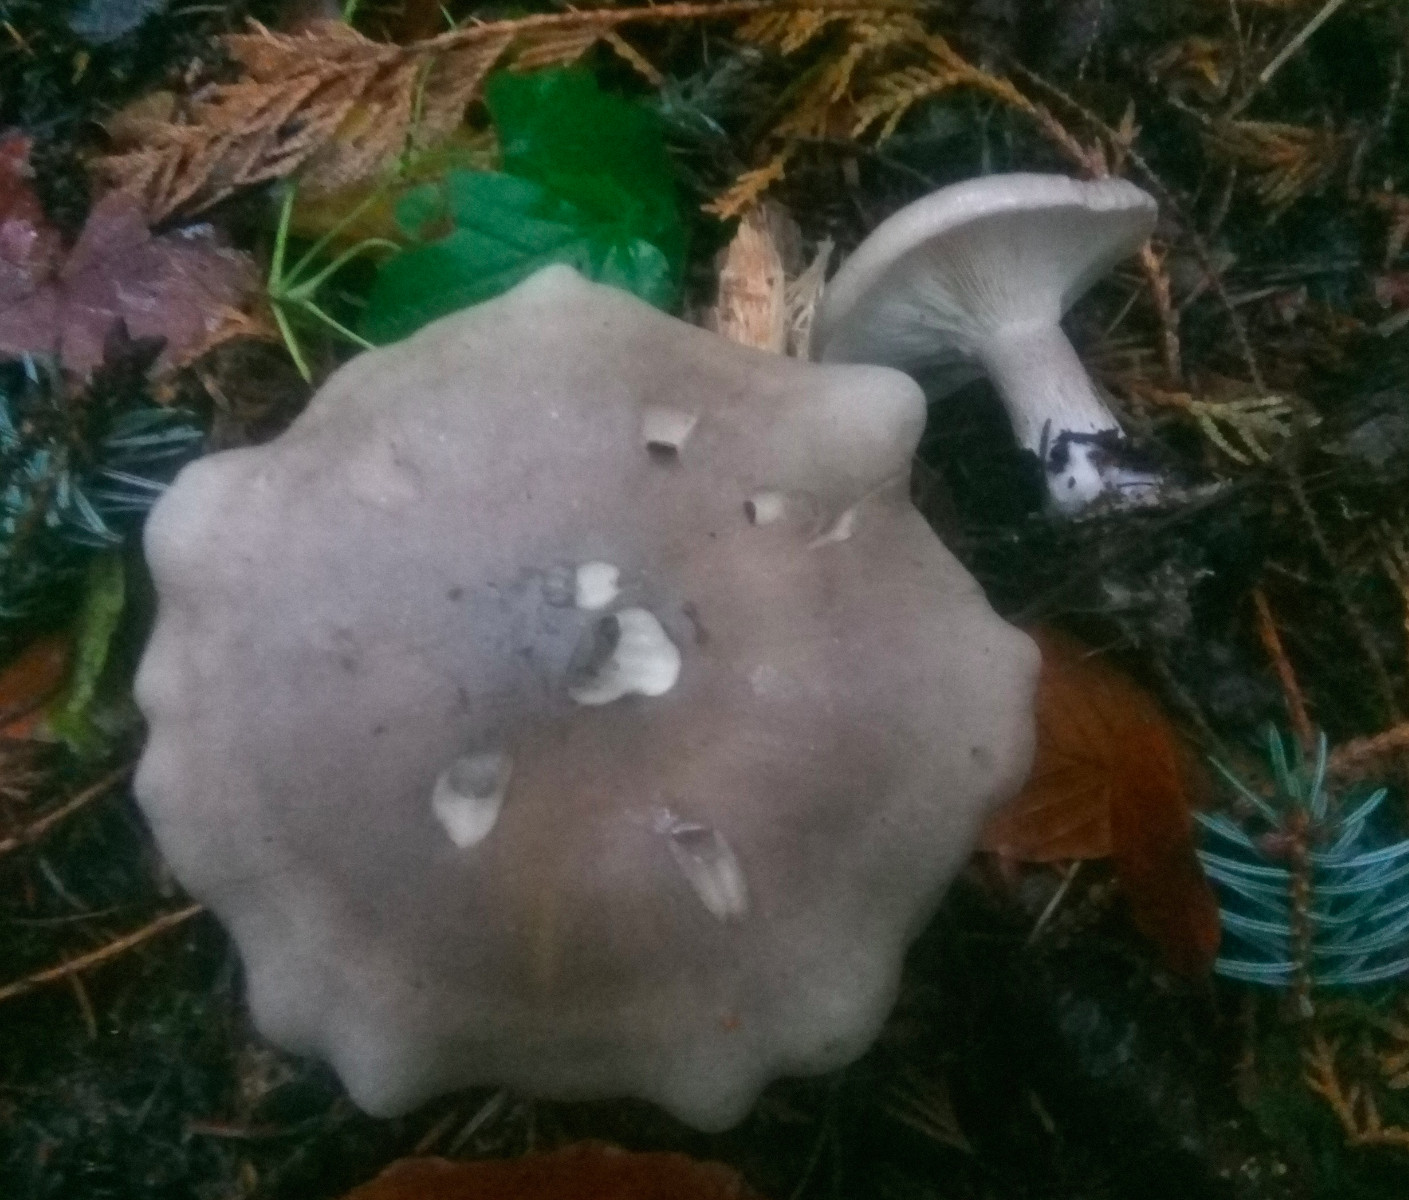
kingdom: Fungi
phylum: Basidiomycota
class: Agaricomycetes
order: Agaricales
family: Tricholomataceae
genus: Clitocybe
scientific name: Clitocybe nebularis
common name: tåge-tragthat
